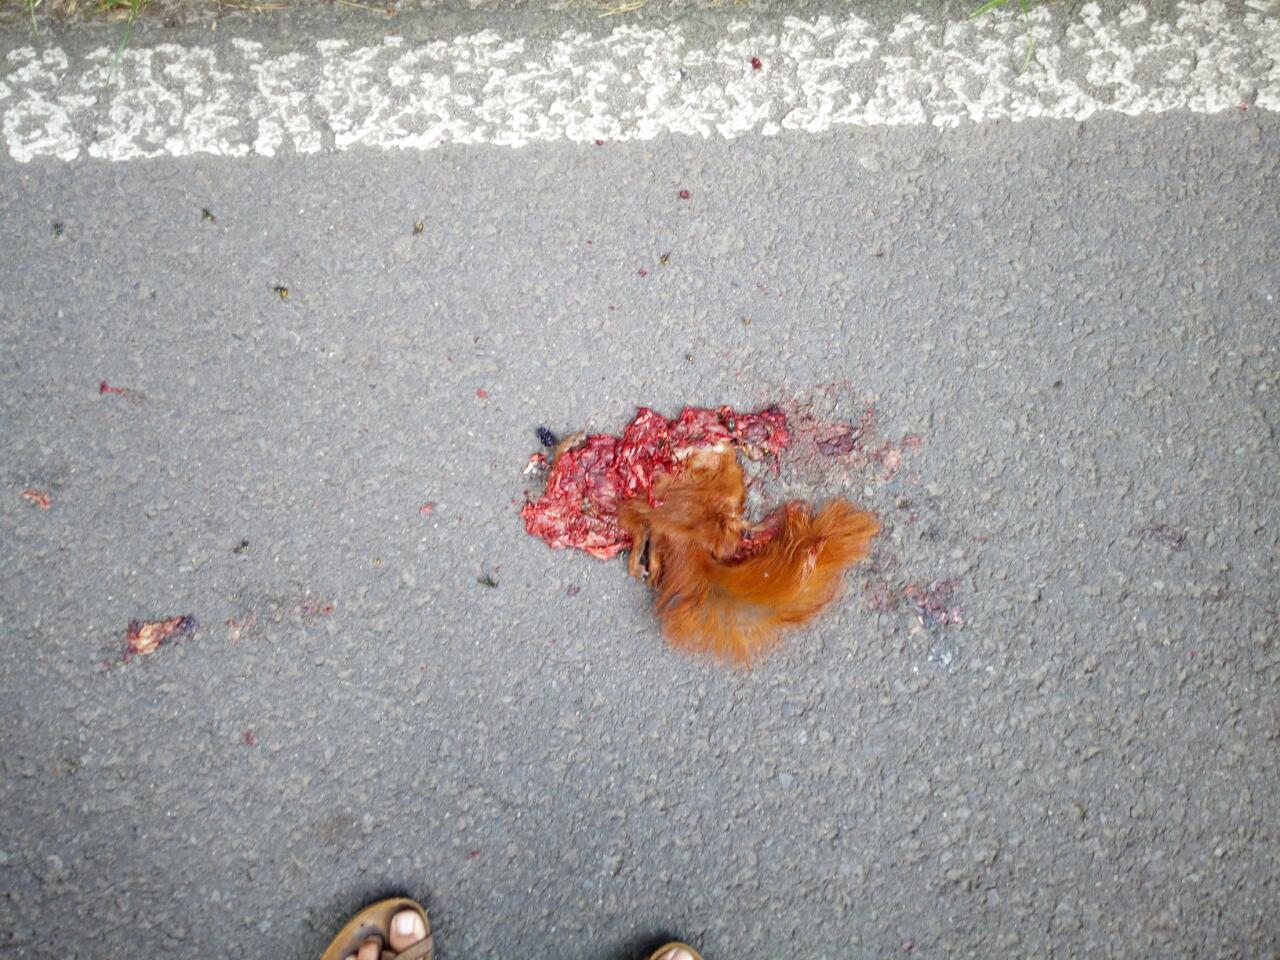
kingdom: Animalia
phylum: Chordata
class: Mammalia
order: Rodentia
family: Sciuridae
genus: Sciurus
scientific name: Sciurus vulgaris
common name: Eurasian red squirrel
